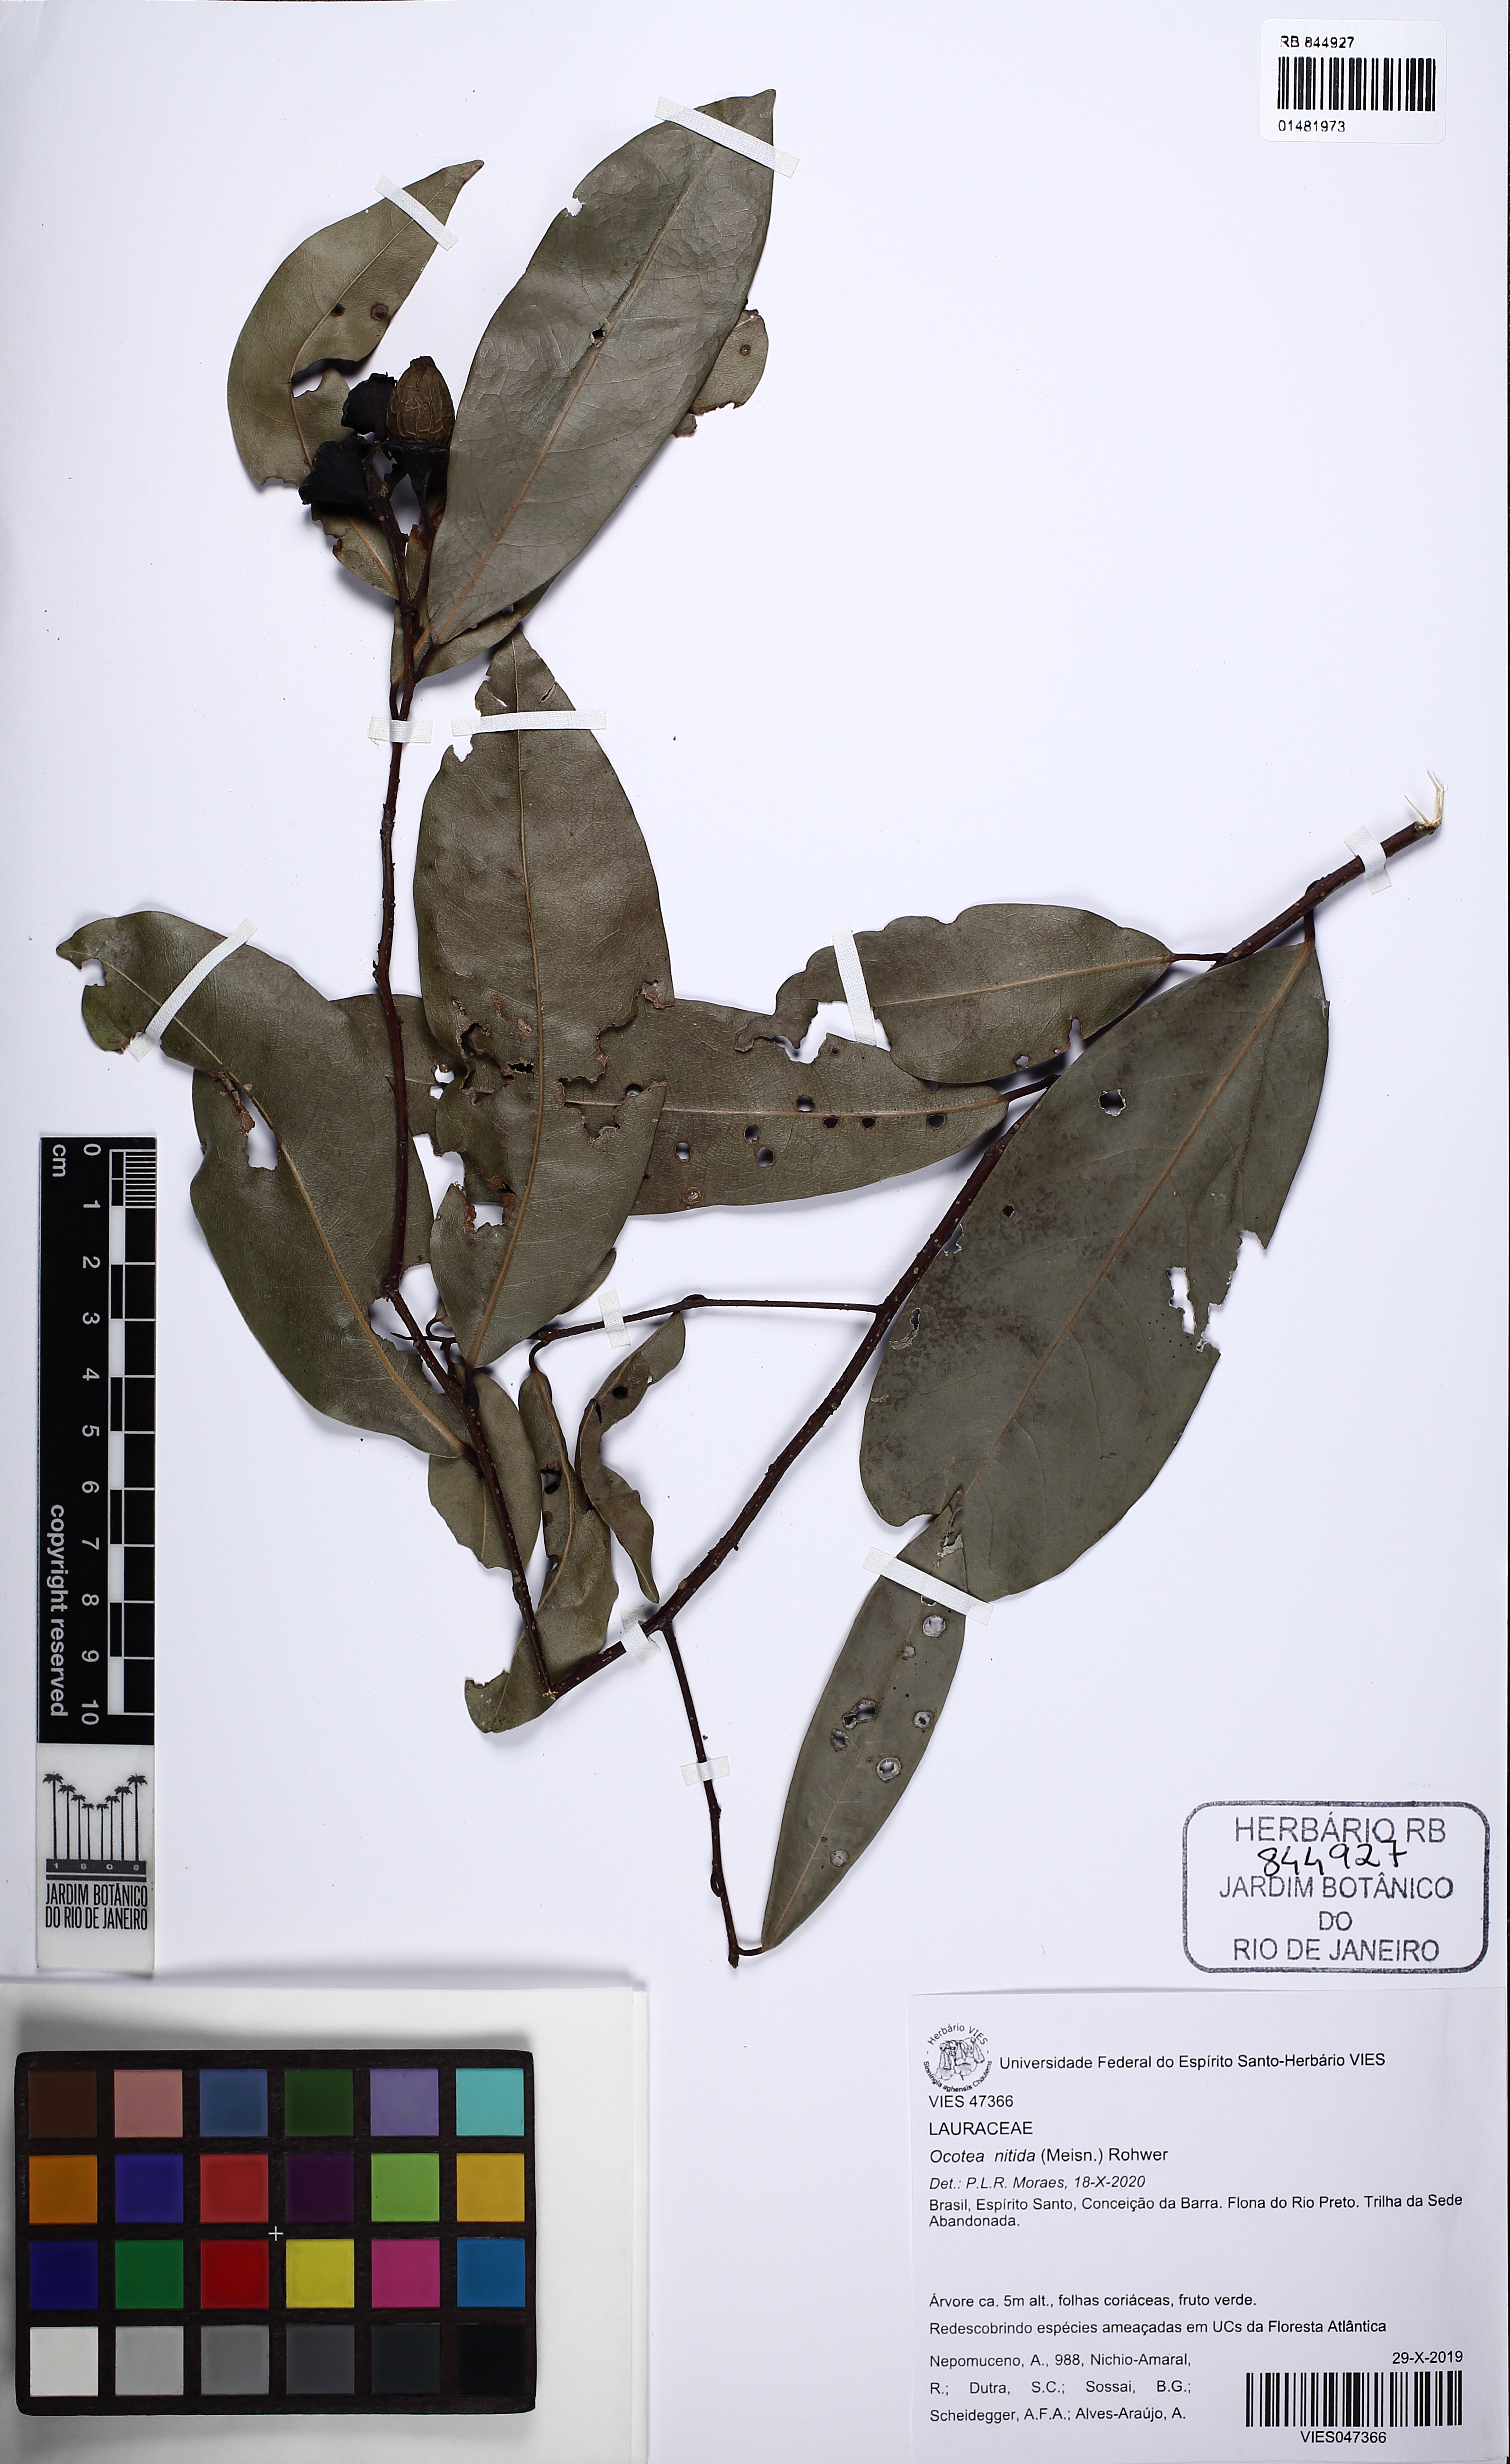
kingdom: Plantae
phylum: Tracheophyta
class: Magnoliopsida
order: Laurales
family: Lauraceae
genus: Ocotea
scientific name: Ocotea nitida
